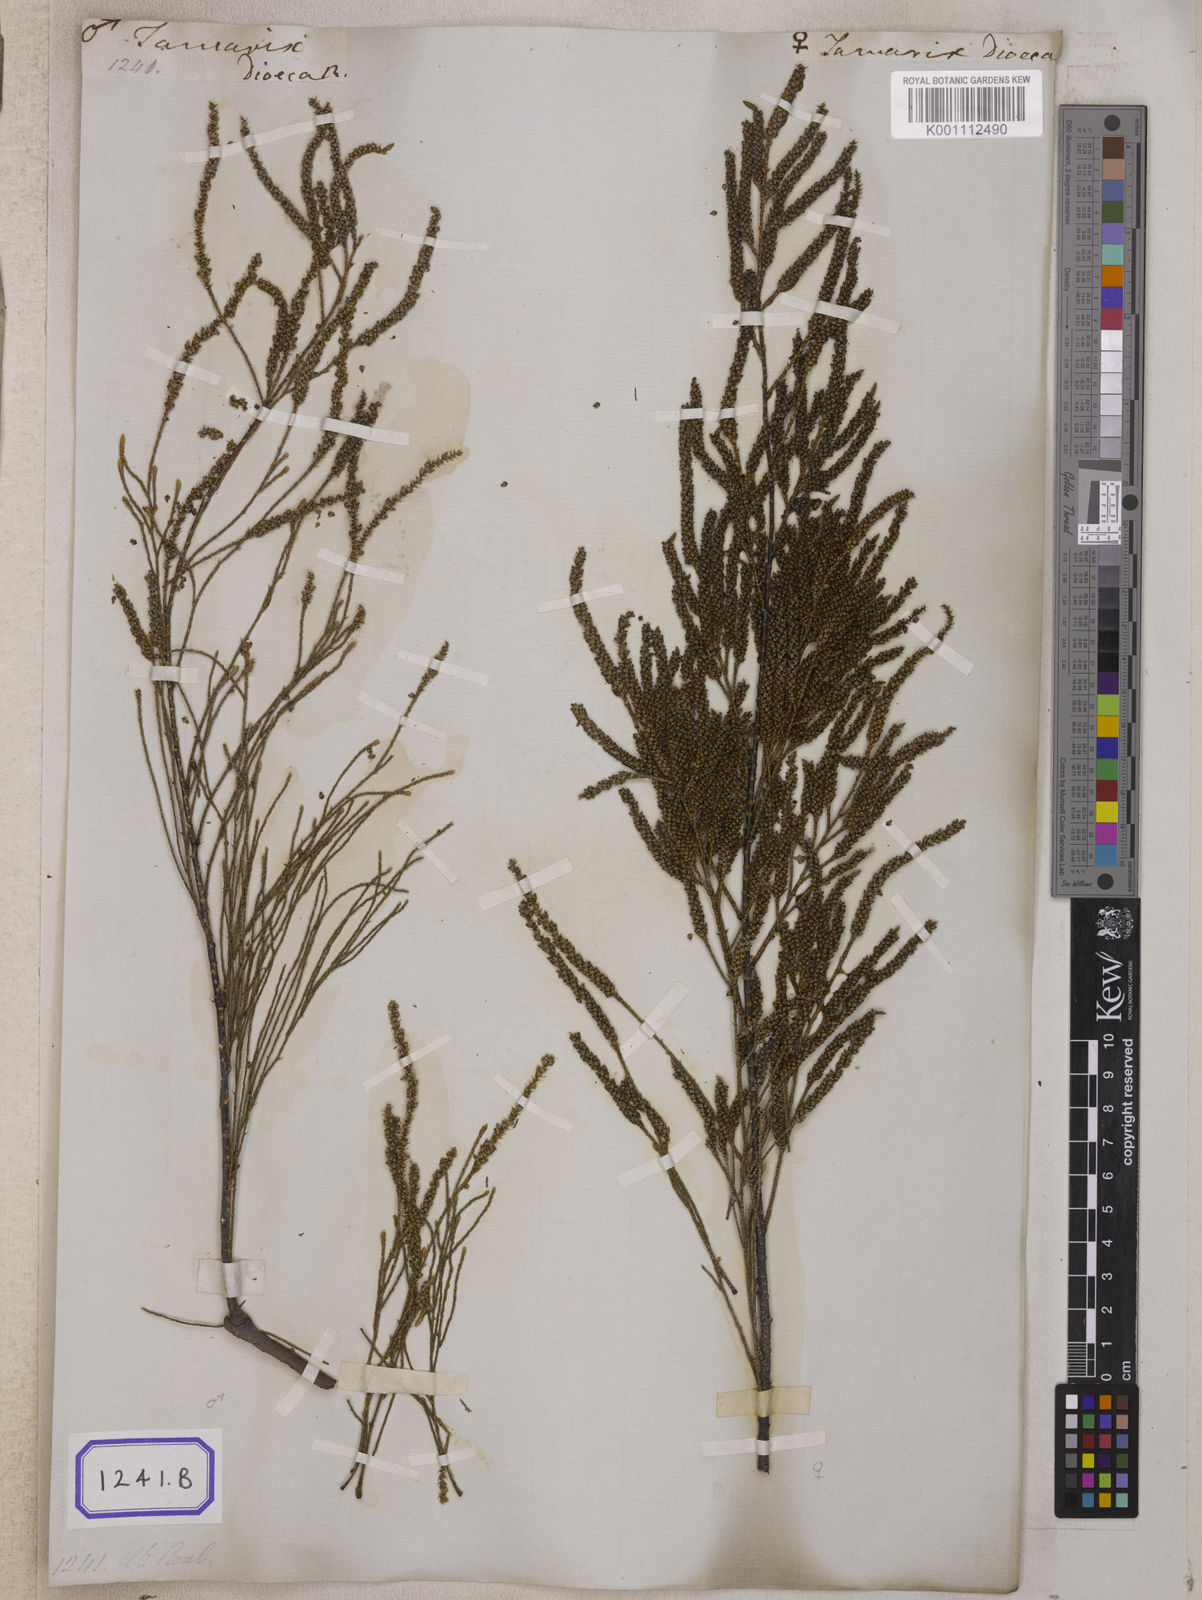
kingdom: Plantae
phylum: Tracheophyta
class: Magnoliopsida
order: Caryophyllales
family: Tamaricaceae
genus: Tamarix
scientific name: Tamarix
